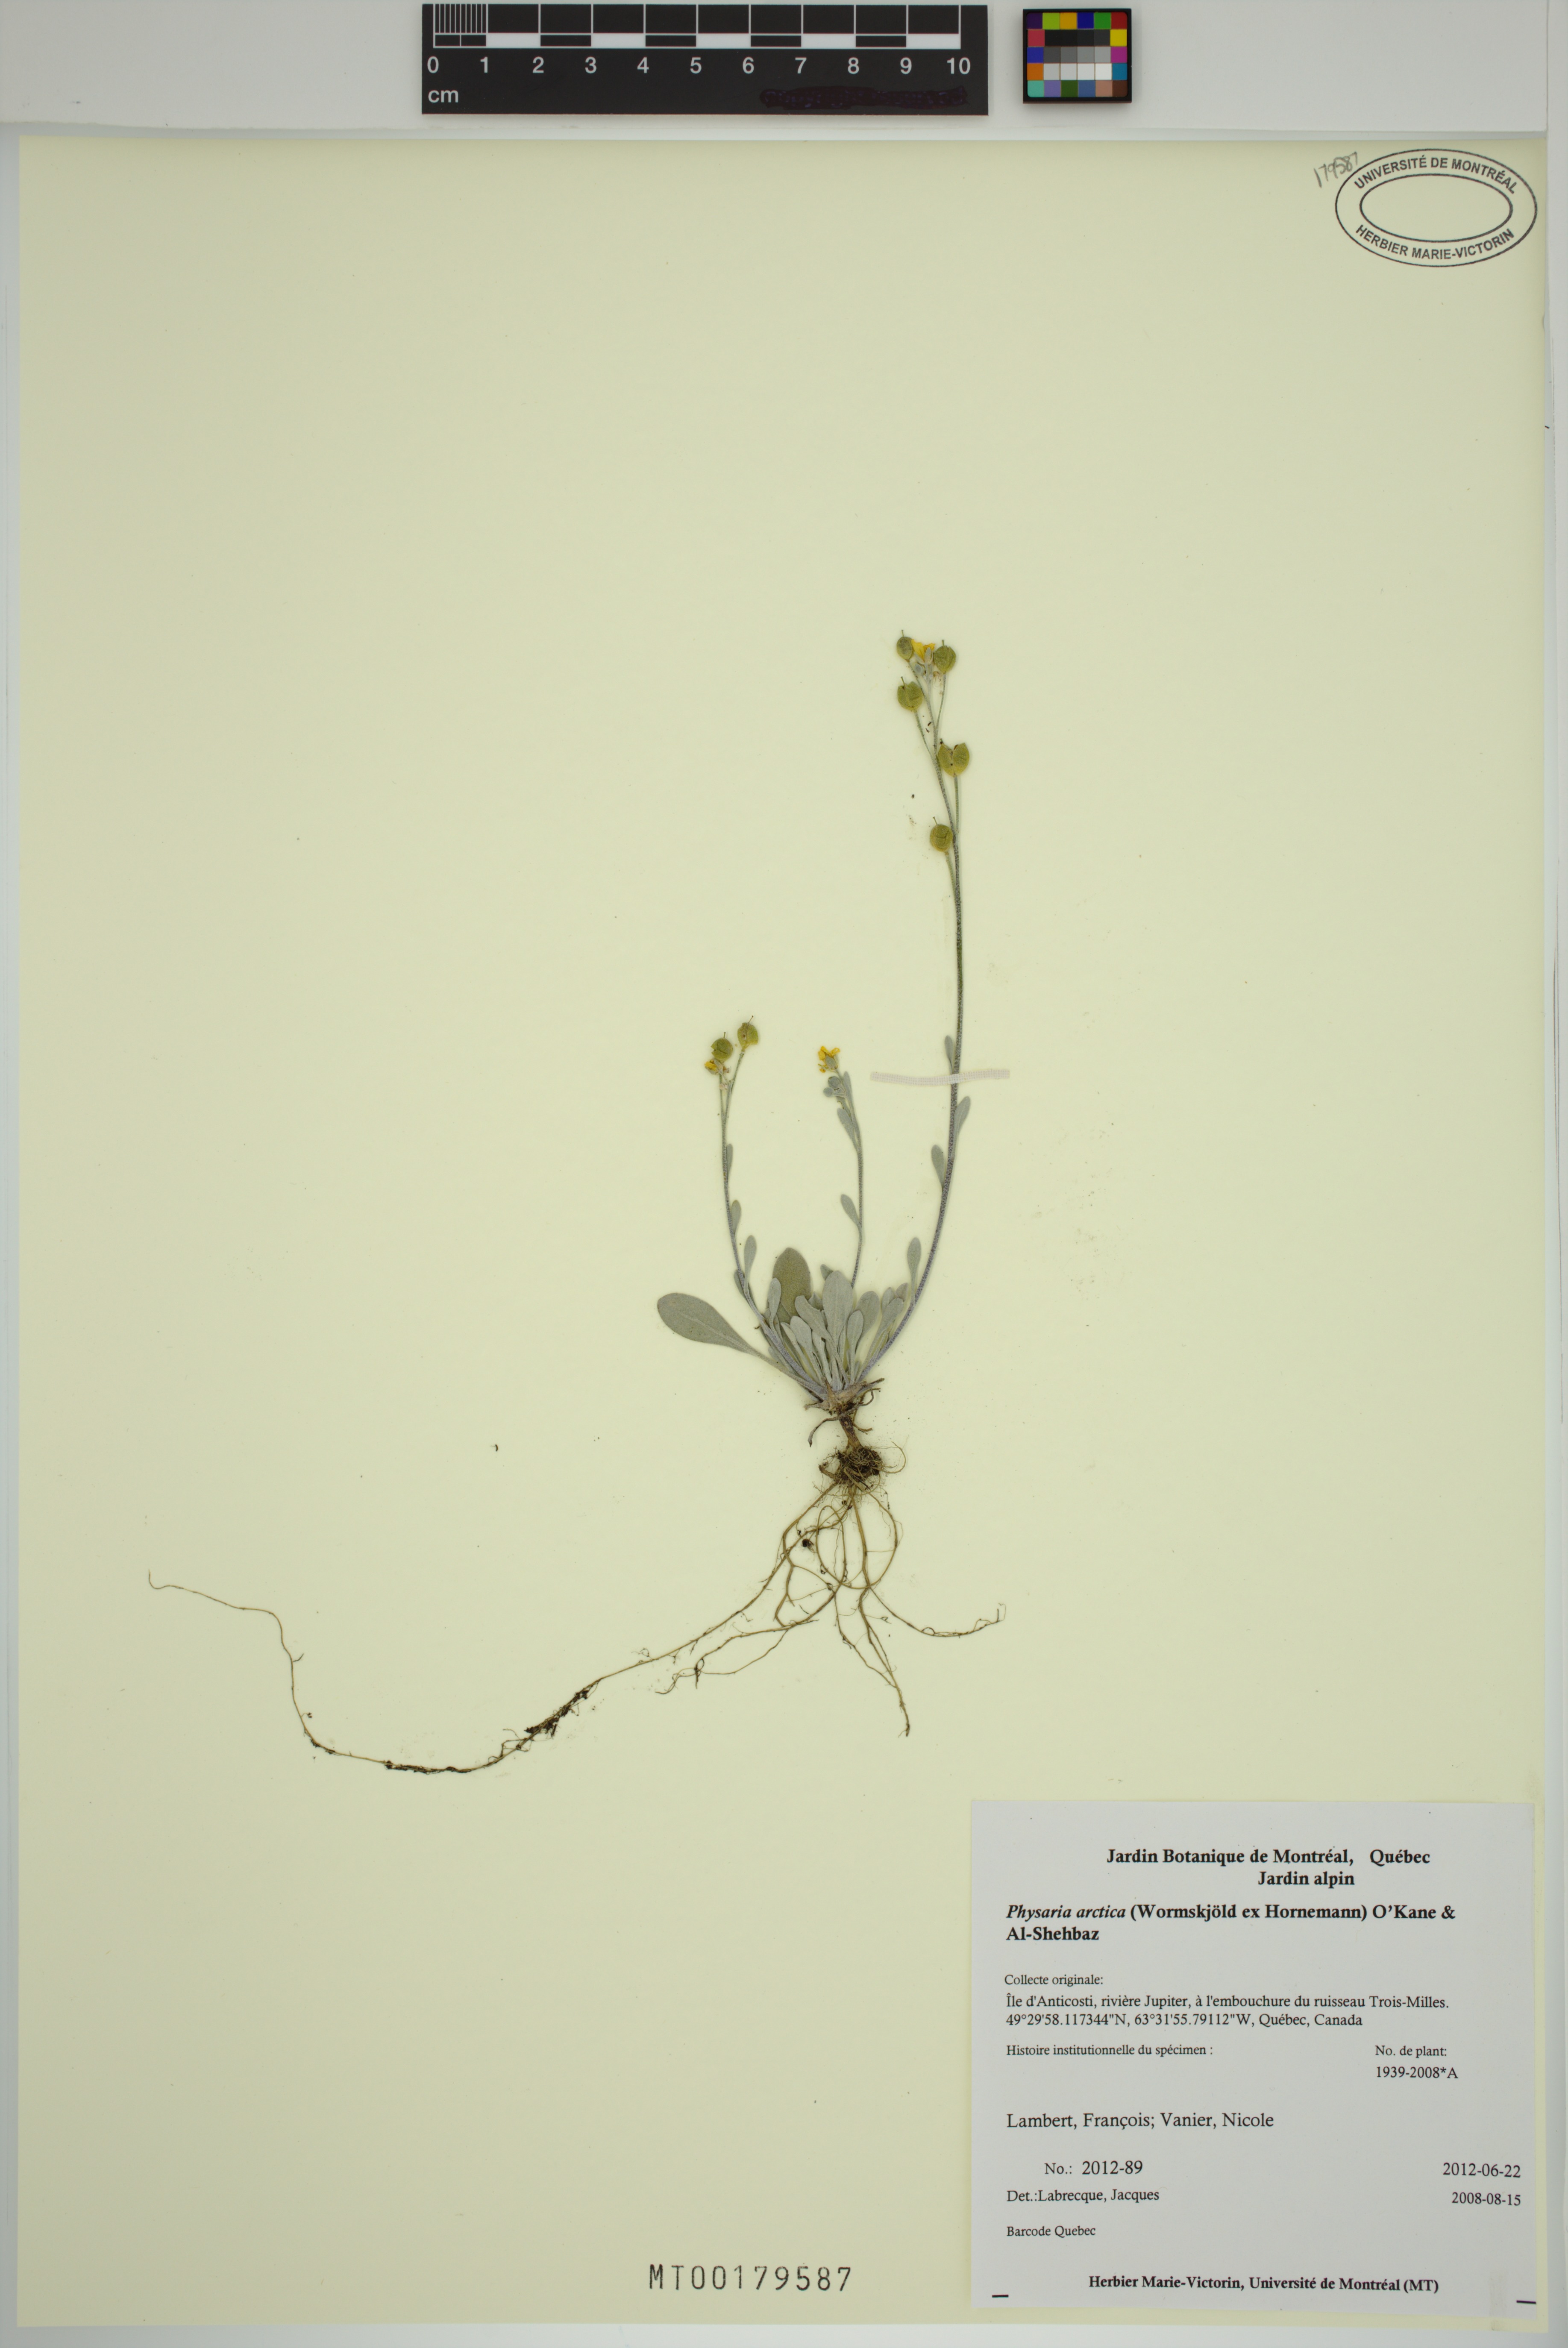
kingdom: Plantae
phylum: Tracheophyta
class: Magnoliopsida
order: Brassicales
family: Brassicaceae
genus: Physaria
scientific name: Physaria arctica
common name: Arctic bladderpod
